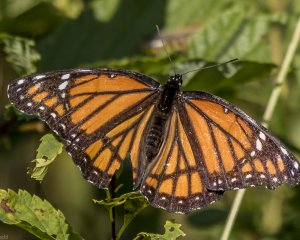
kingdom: Animalia
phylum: Arthropoda
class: Insecta
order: Lepidoptera
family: Nymphalidae
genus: Limenitis
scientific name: Limenitis archippus
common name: Viceroy
